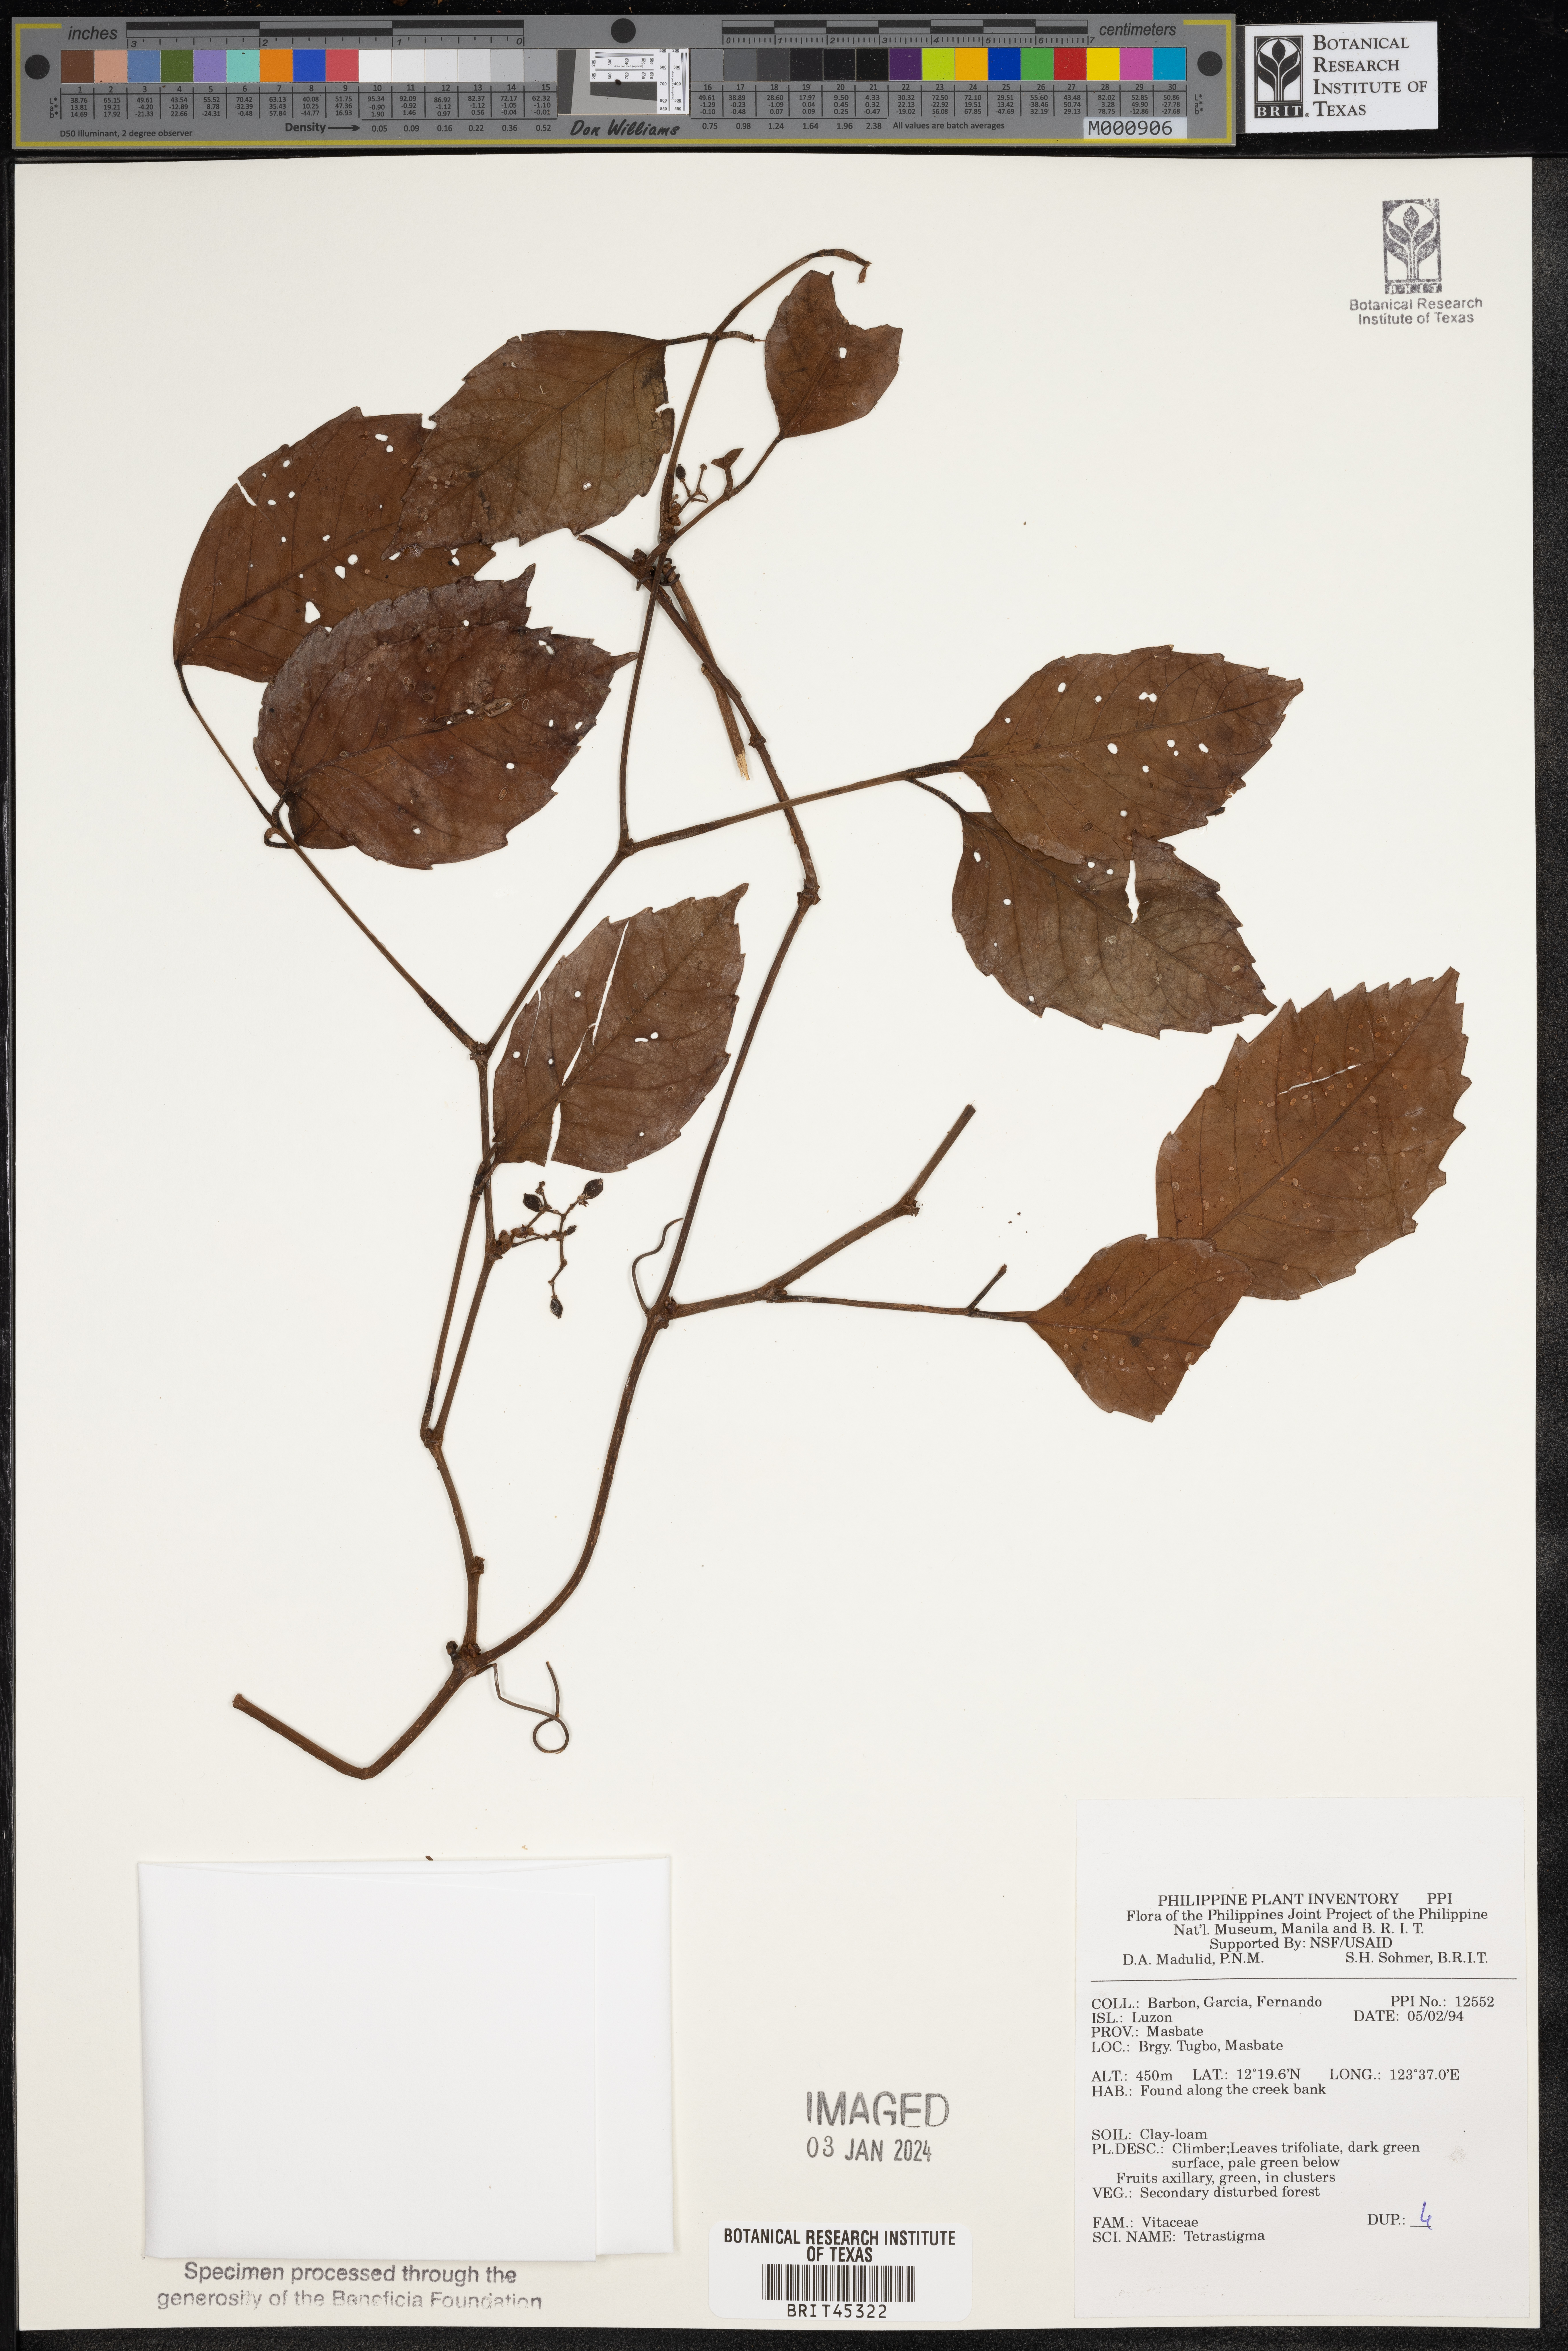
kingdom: Plantae
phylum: Tracheophyta
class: Magnoliopsida
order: Vitales
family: Vitaceae
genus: Tetrastigma
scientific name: Tetrastigma
